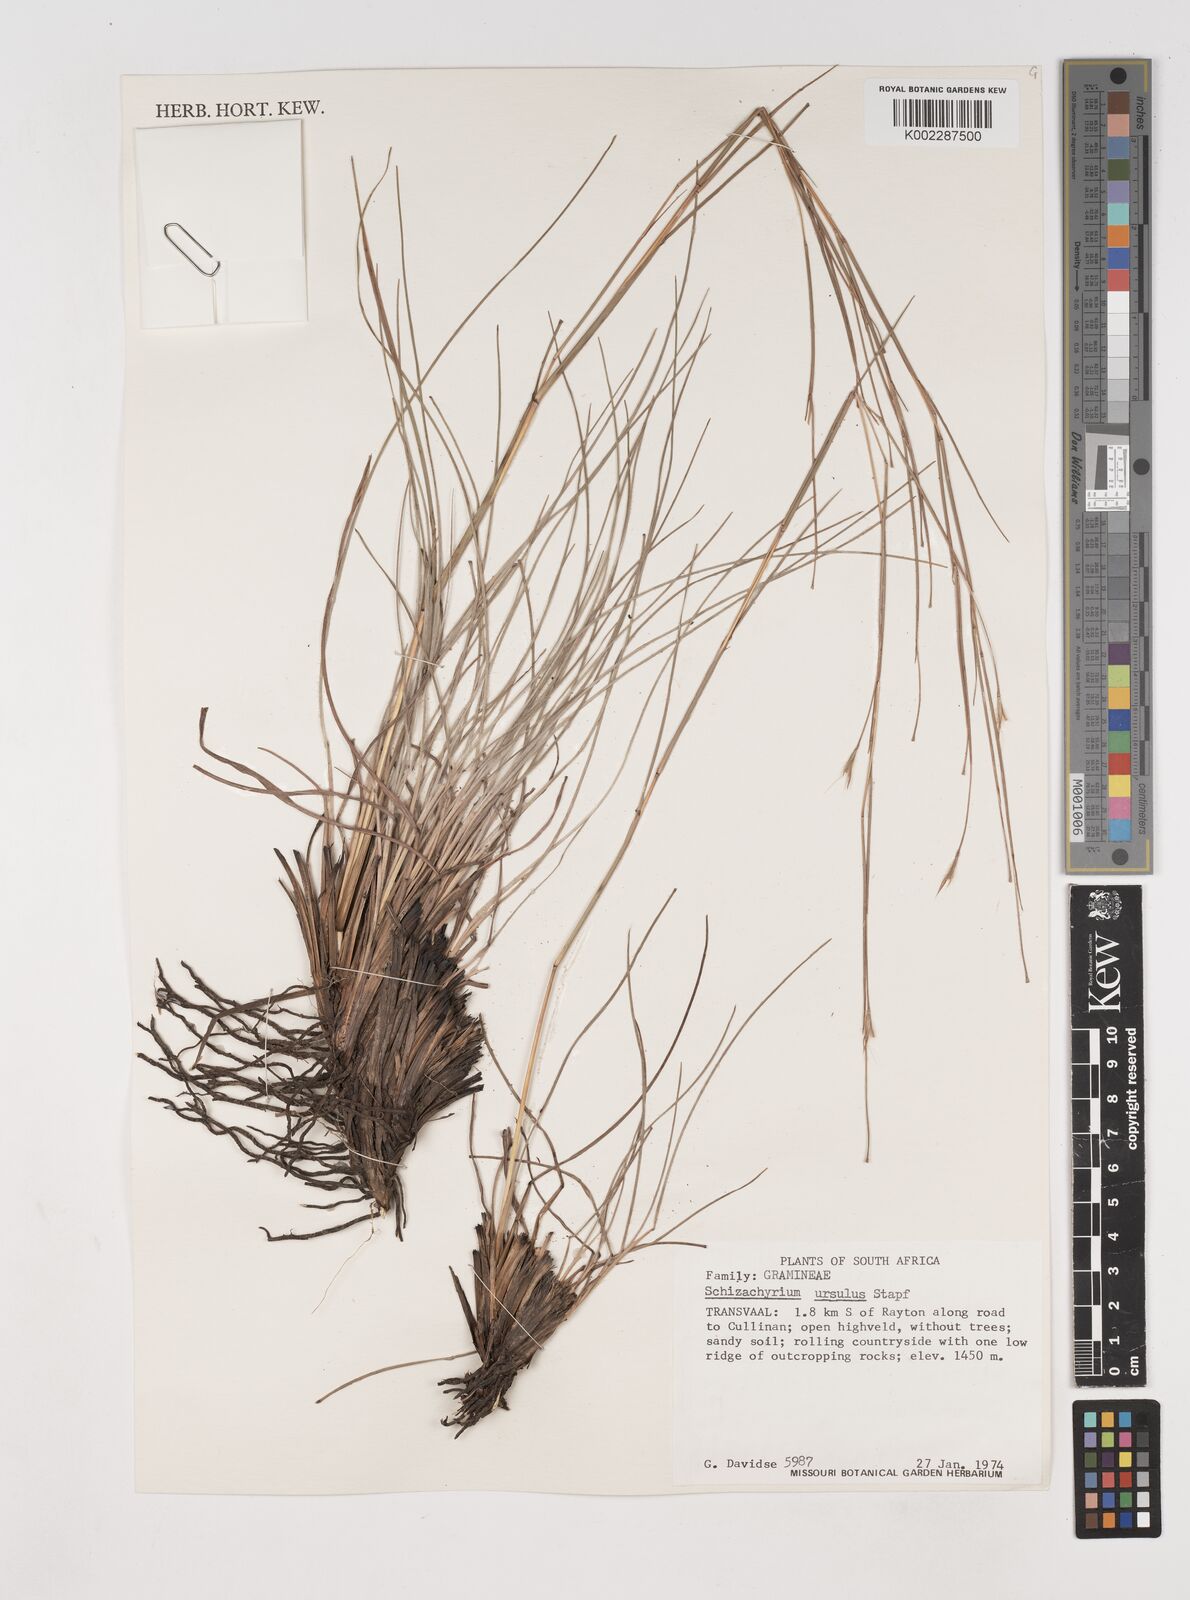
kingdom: Plantae
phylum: Tracheophyta
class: Liliopsida
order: Poales
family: Poaceae
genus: Schizachyrium
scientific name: Schizachyrium jeffreysii
